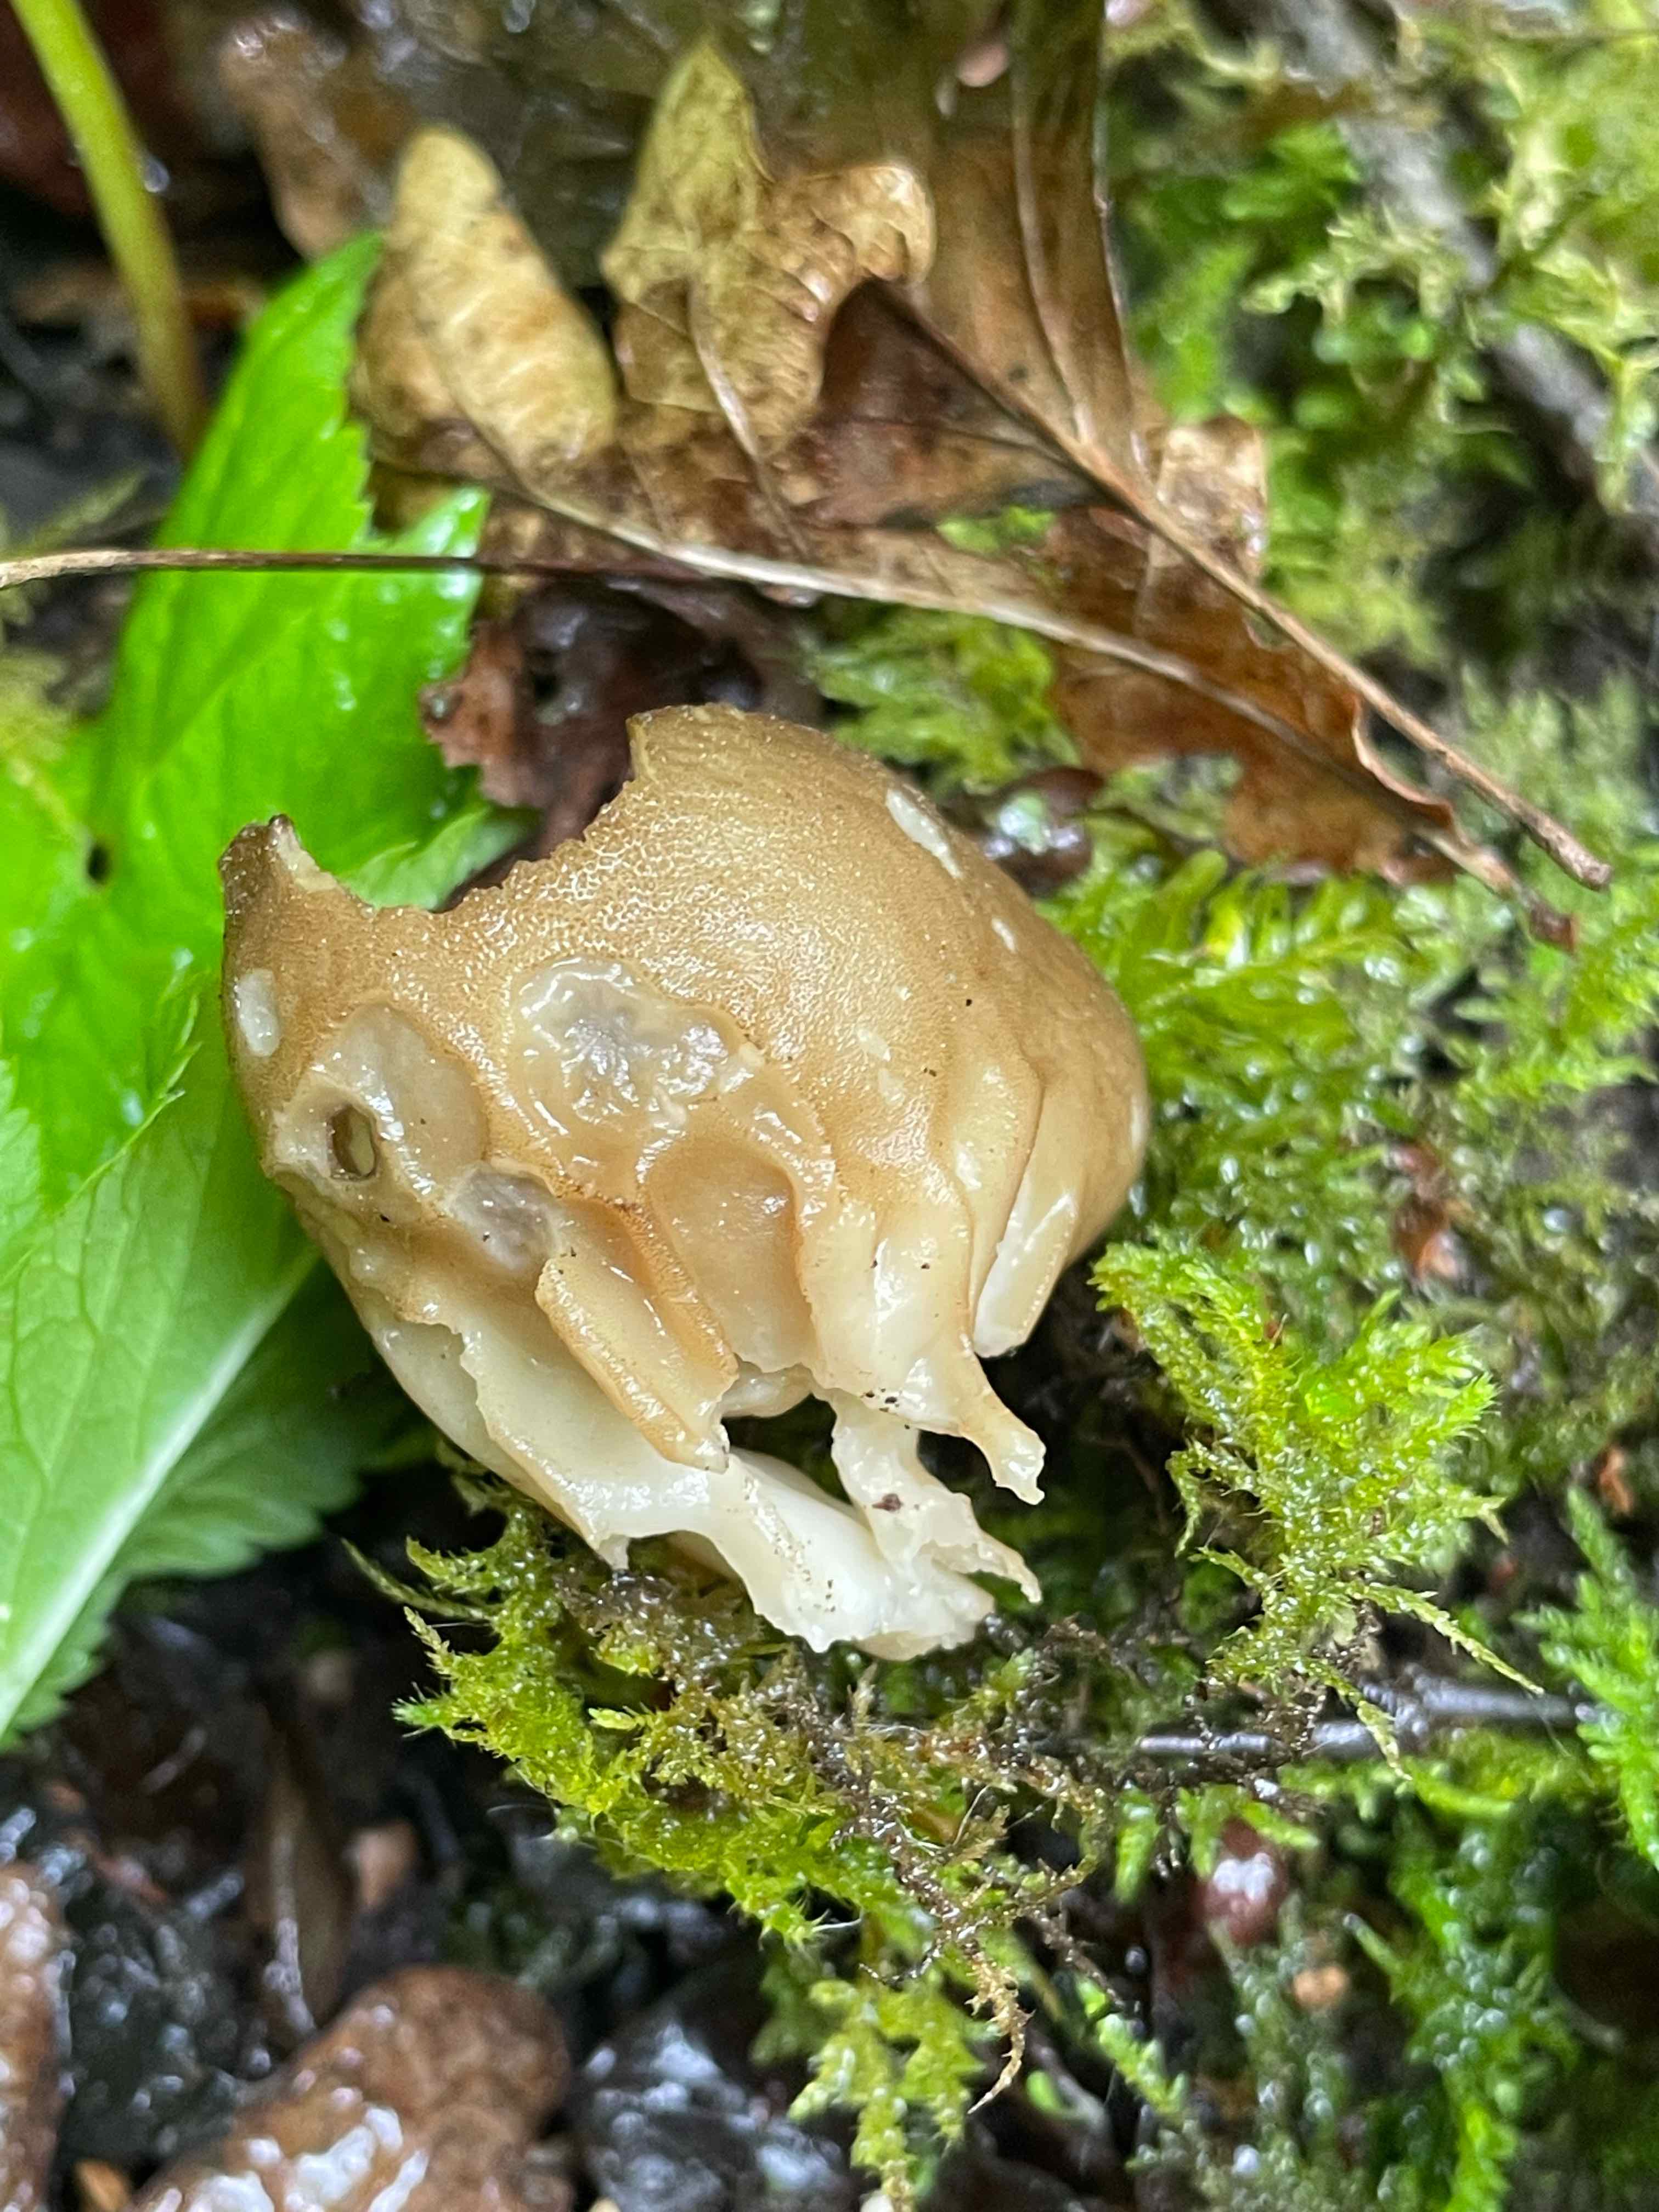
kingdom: Fungi
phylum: Ascomycota
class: Pezizomycetes
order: Pezizales
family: Helvellaceae
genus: Helvella
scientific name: Helvella acetabulum
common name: pokal-foldhat
